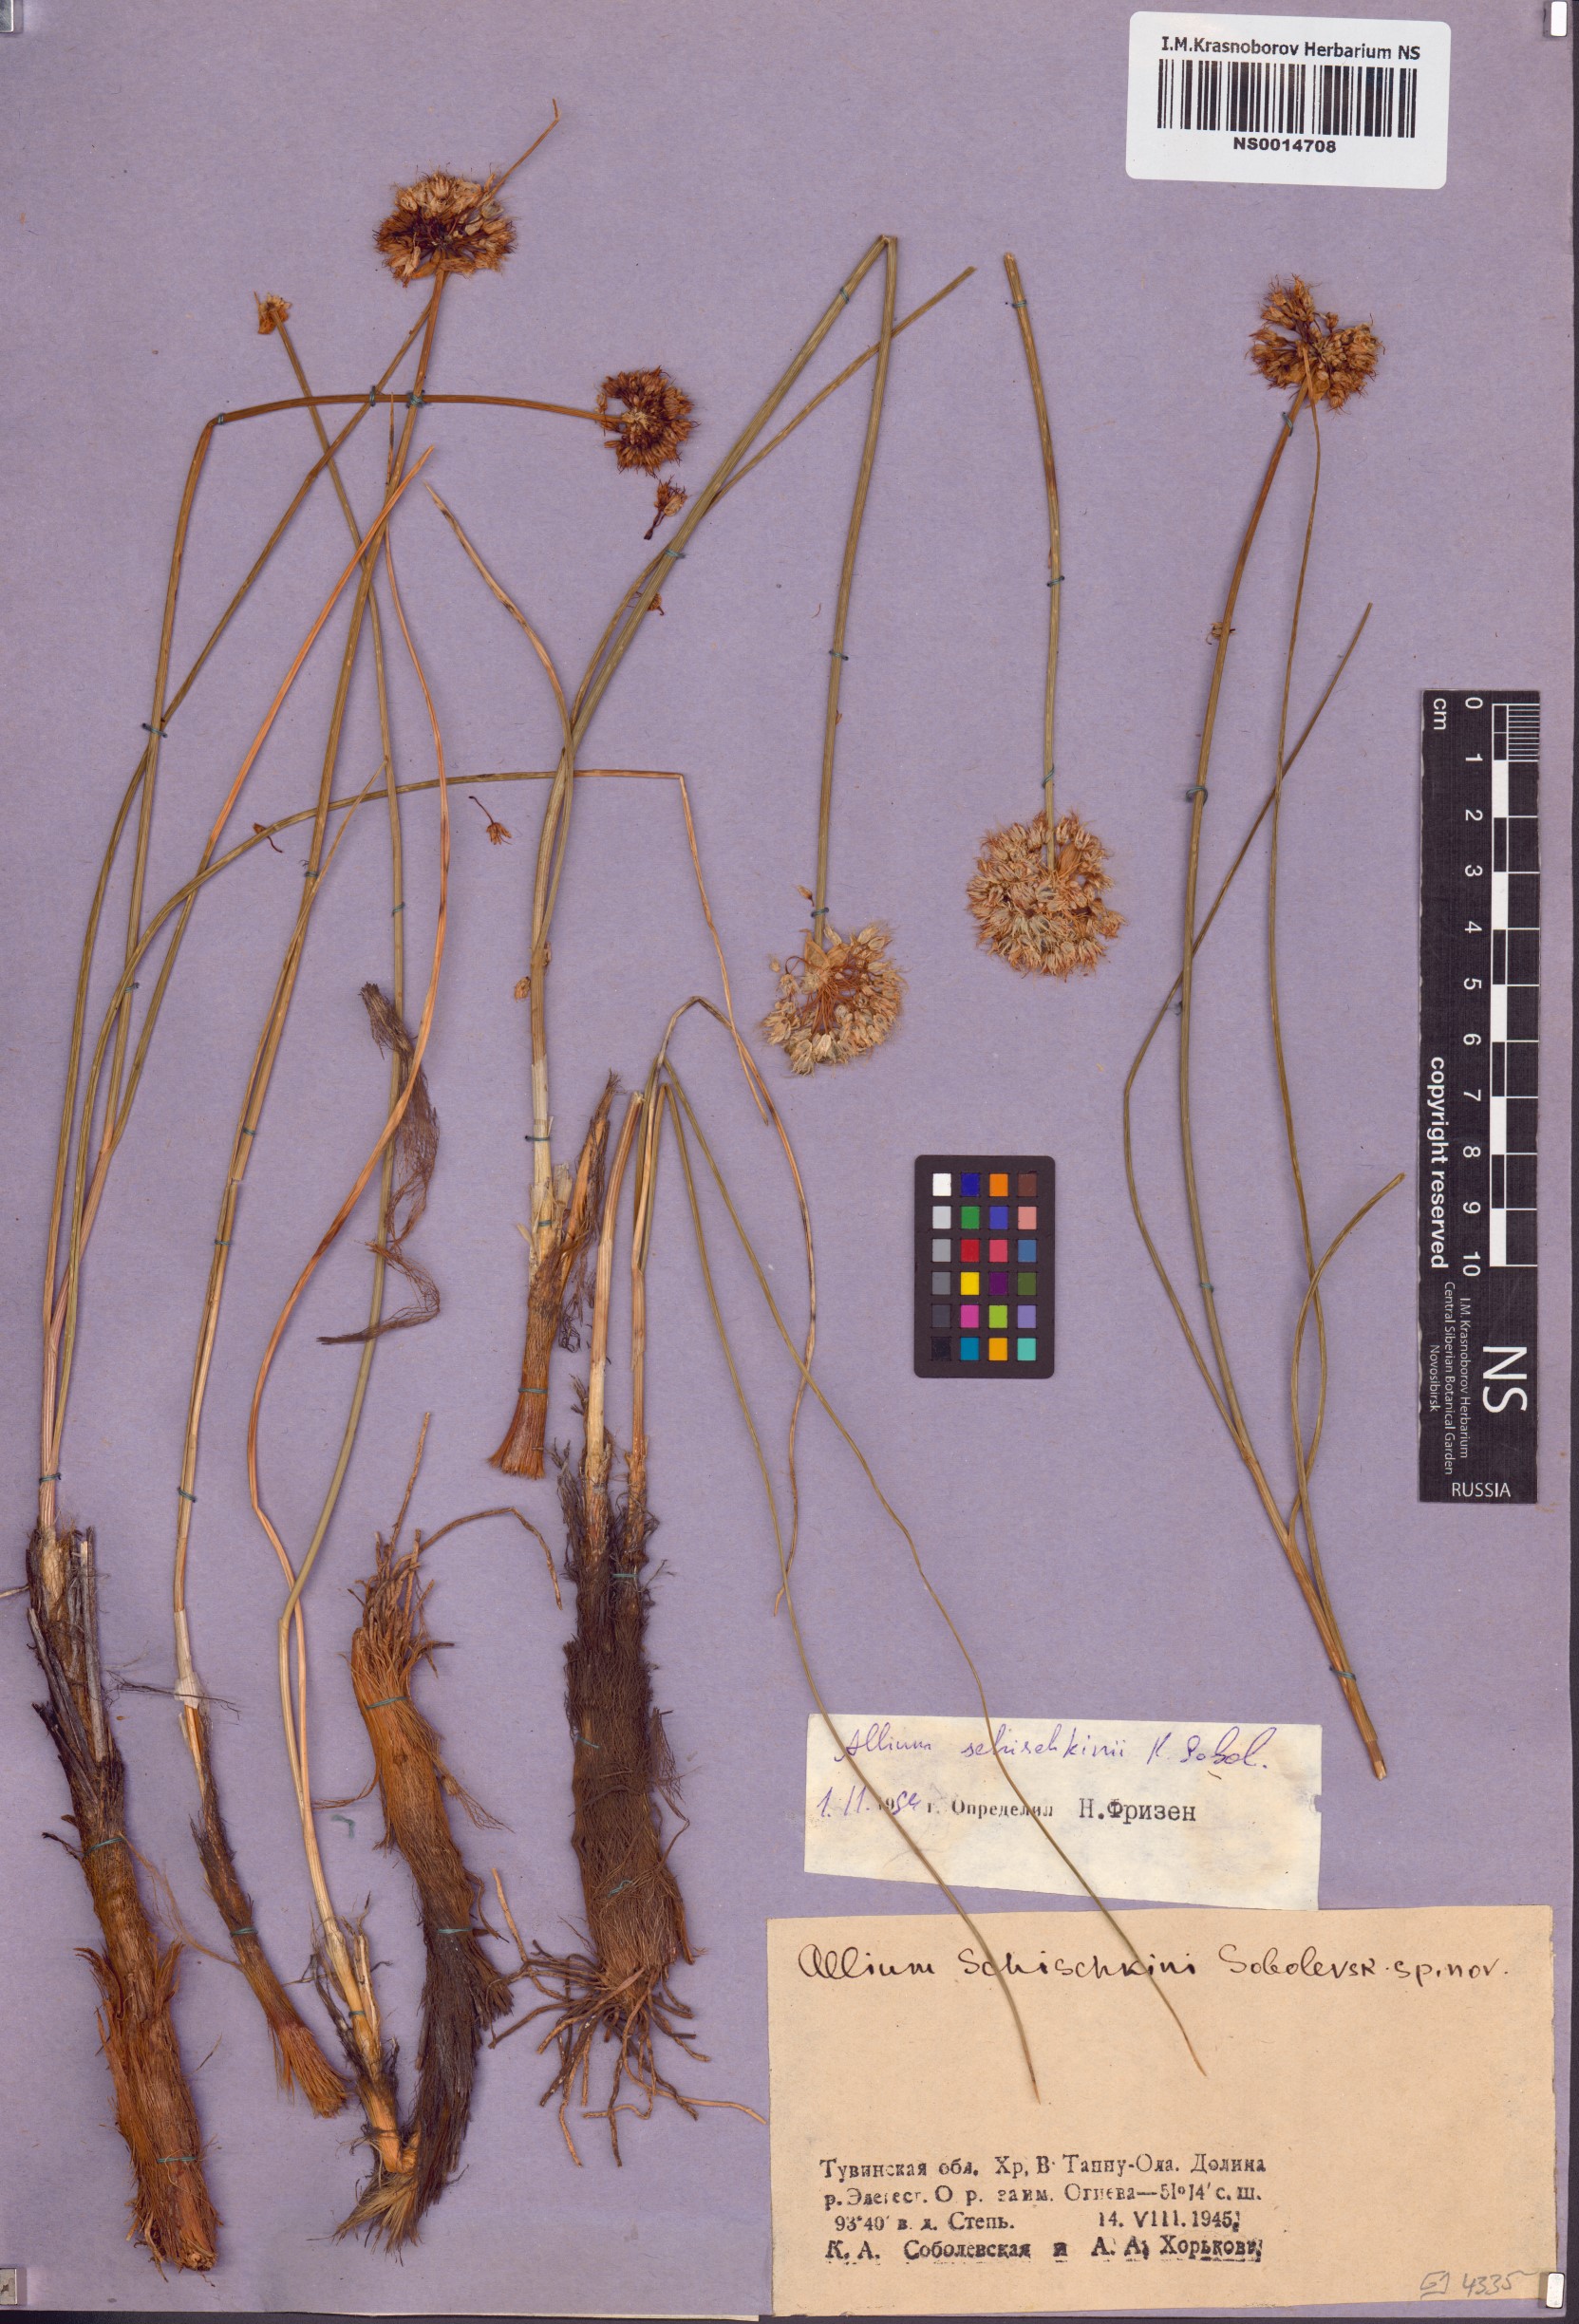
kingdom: Plantae
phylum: Tracheophyta
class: Liliopsida
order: Asparagales
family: Amaryllidaceae
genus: Allium
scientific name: Allium schischkinii
